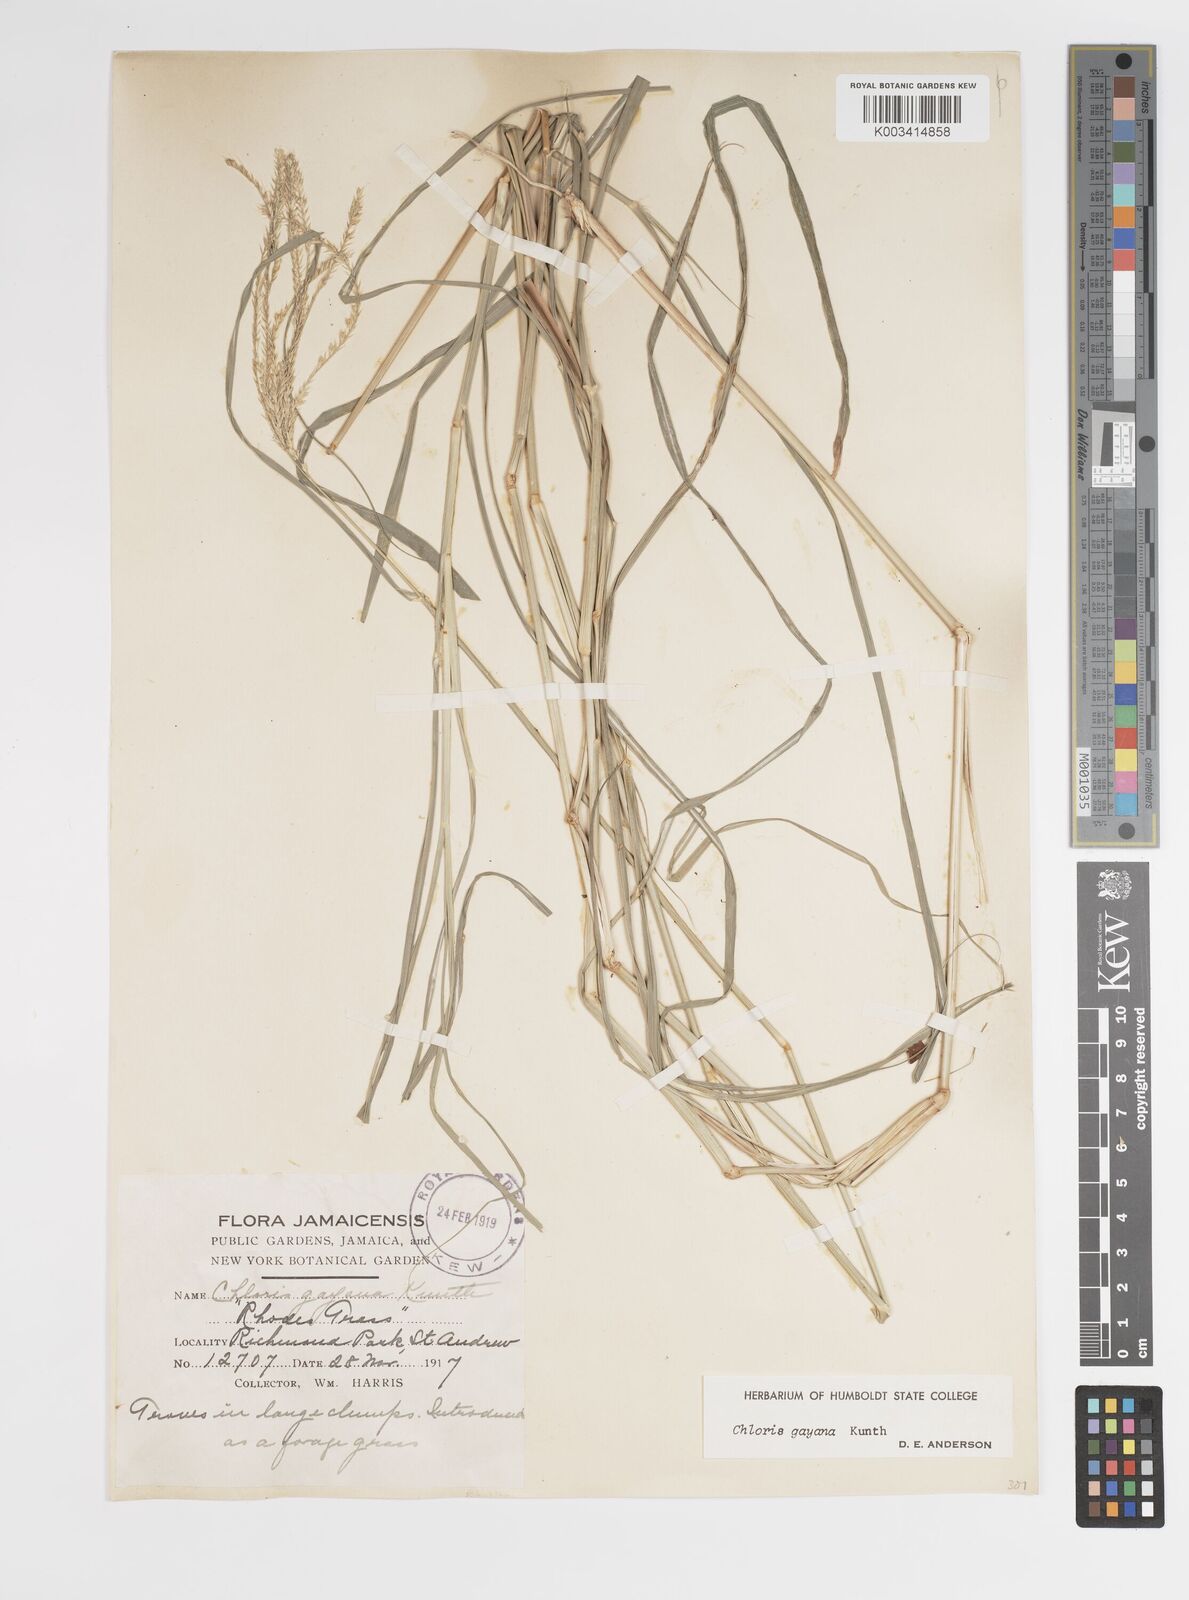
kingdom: Plantae
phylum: Tracheophyta
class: Liliopsida
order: Poales
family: Poaceae
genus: Chloris
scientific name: Chloris gayana
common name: Rhodes grass
